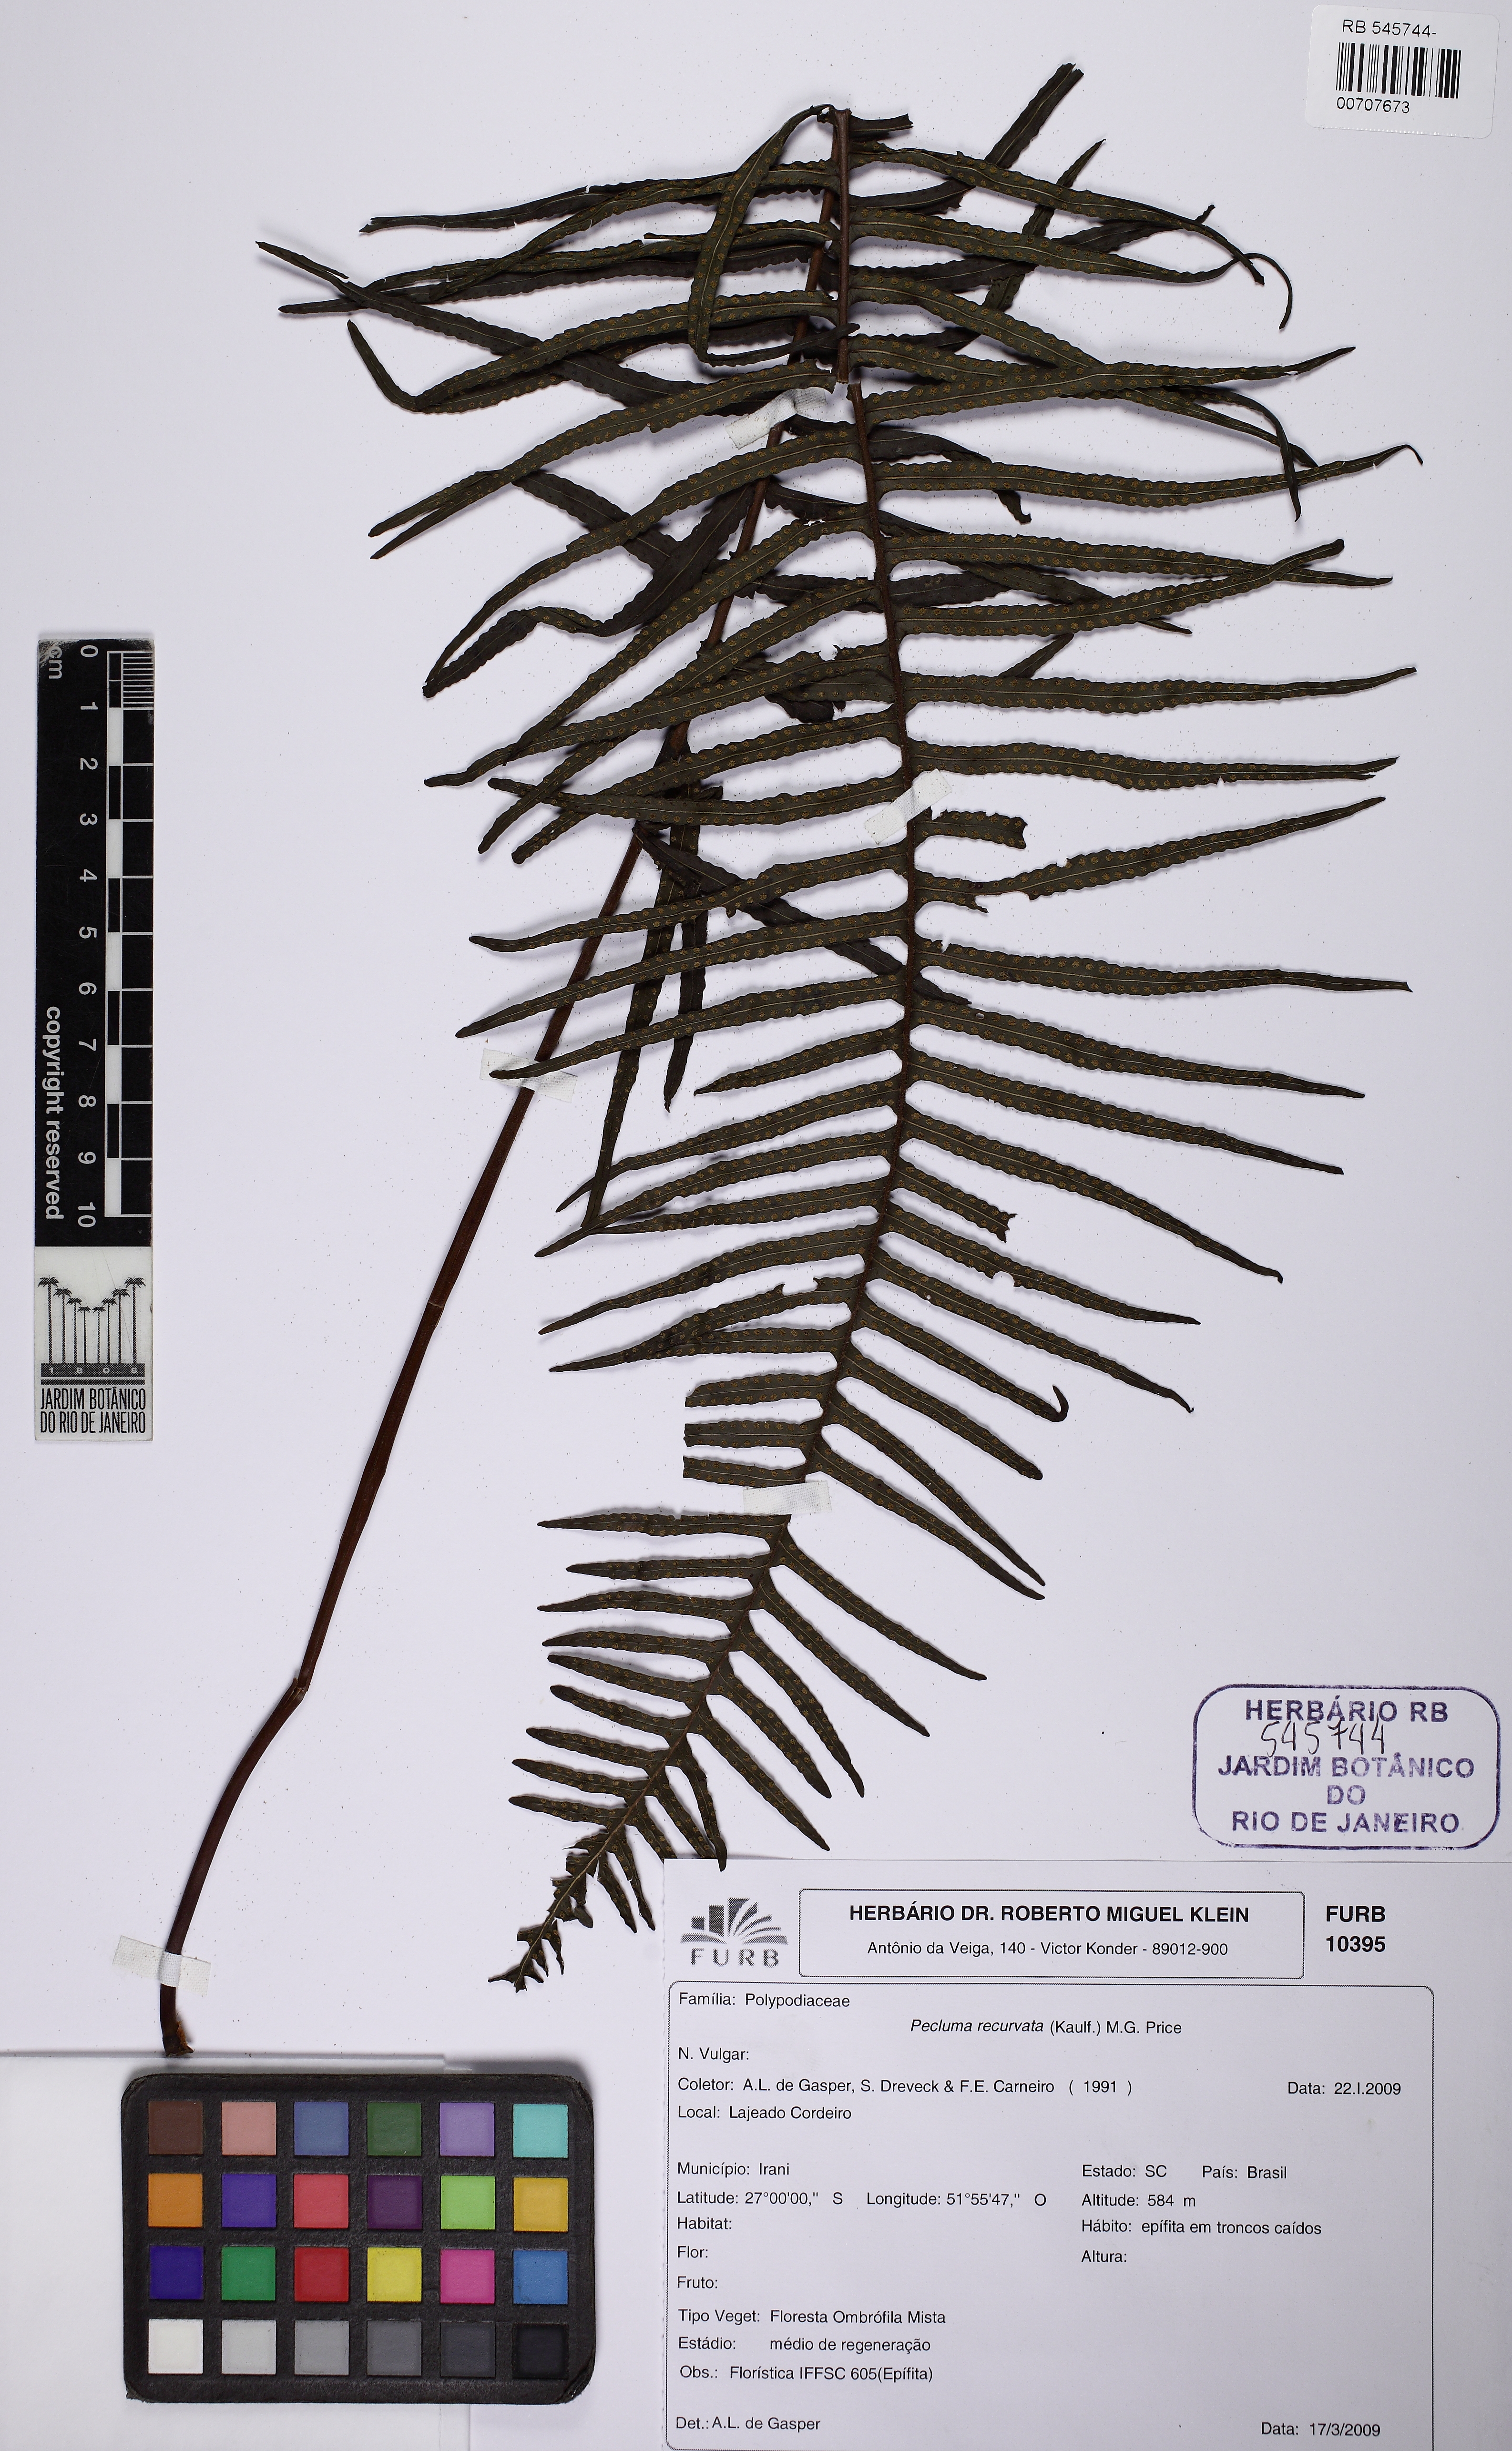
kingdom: Plantae
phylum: Tracheophyta
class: Polypodiopsida
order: Polypodiales
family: Polypodiaceae
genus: Pecluma
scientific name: Pecluma recurvata
